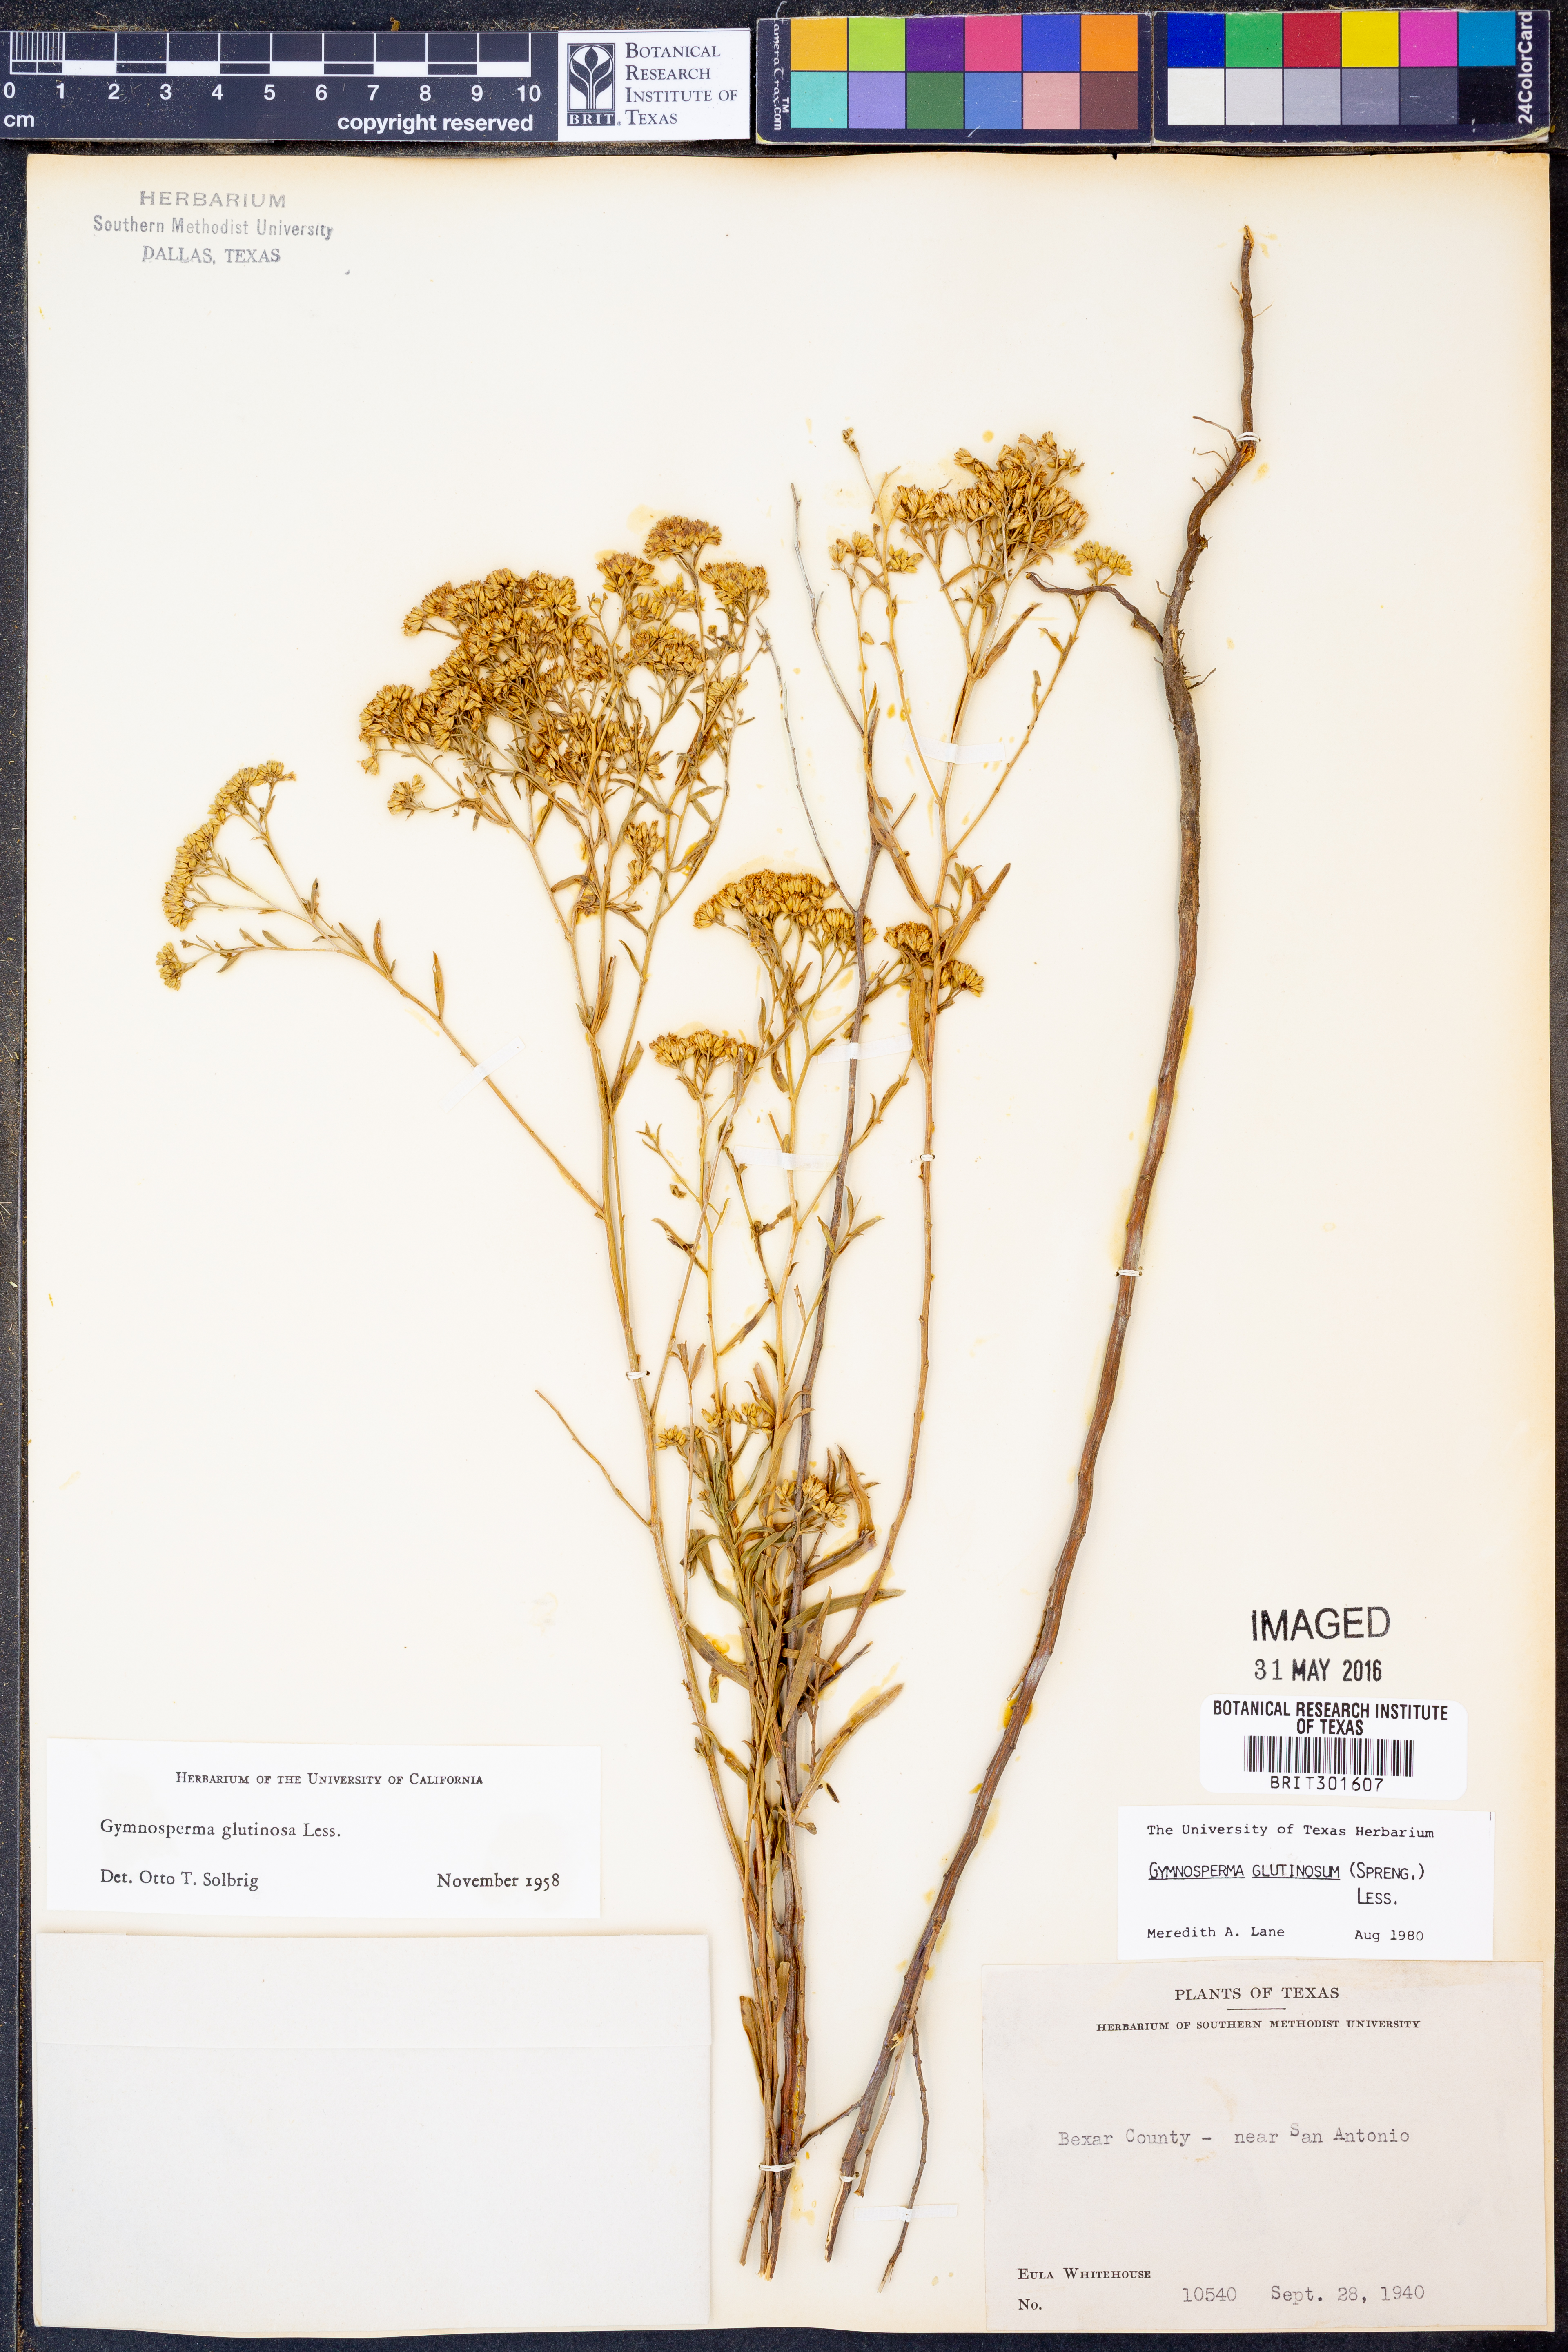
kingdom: Plantae
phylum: Tracheophyta
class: Magnoliopsida
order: Asterales
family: Asteraceae
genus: Gymnosperma
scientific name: Gymnosperma glutinosum
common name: Gumhead
